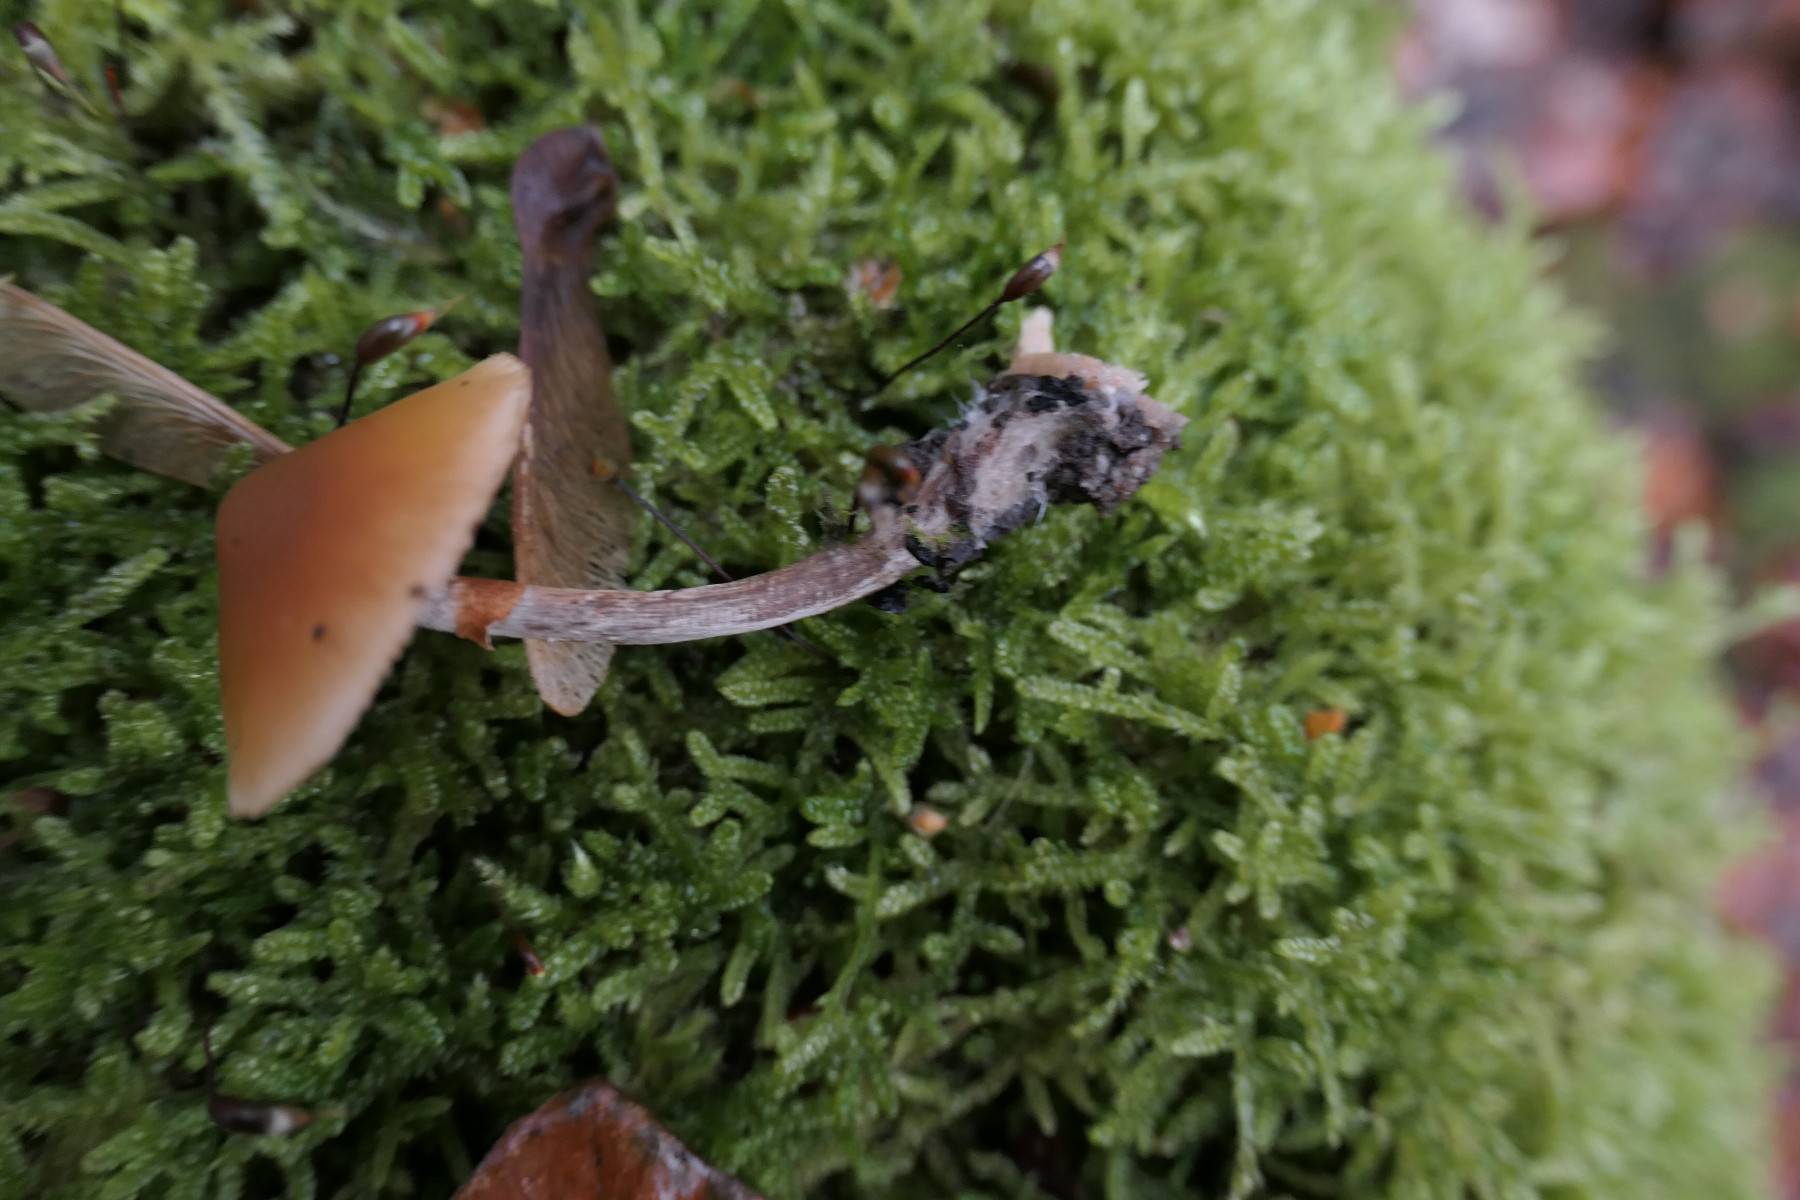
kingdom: Fungi
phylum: Basidiomycota
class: Agaricomycetes
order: Agaricales
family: Hymenogastraceae
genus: Galerina
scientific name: Galerina marginata
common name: randbæltet hjelmhat
